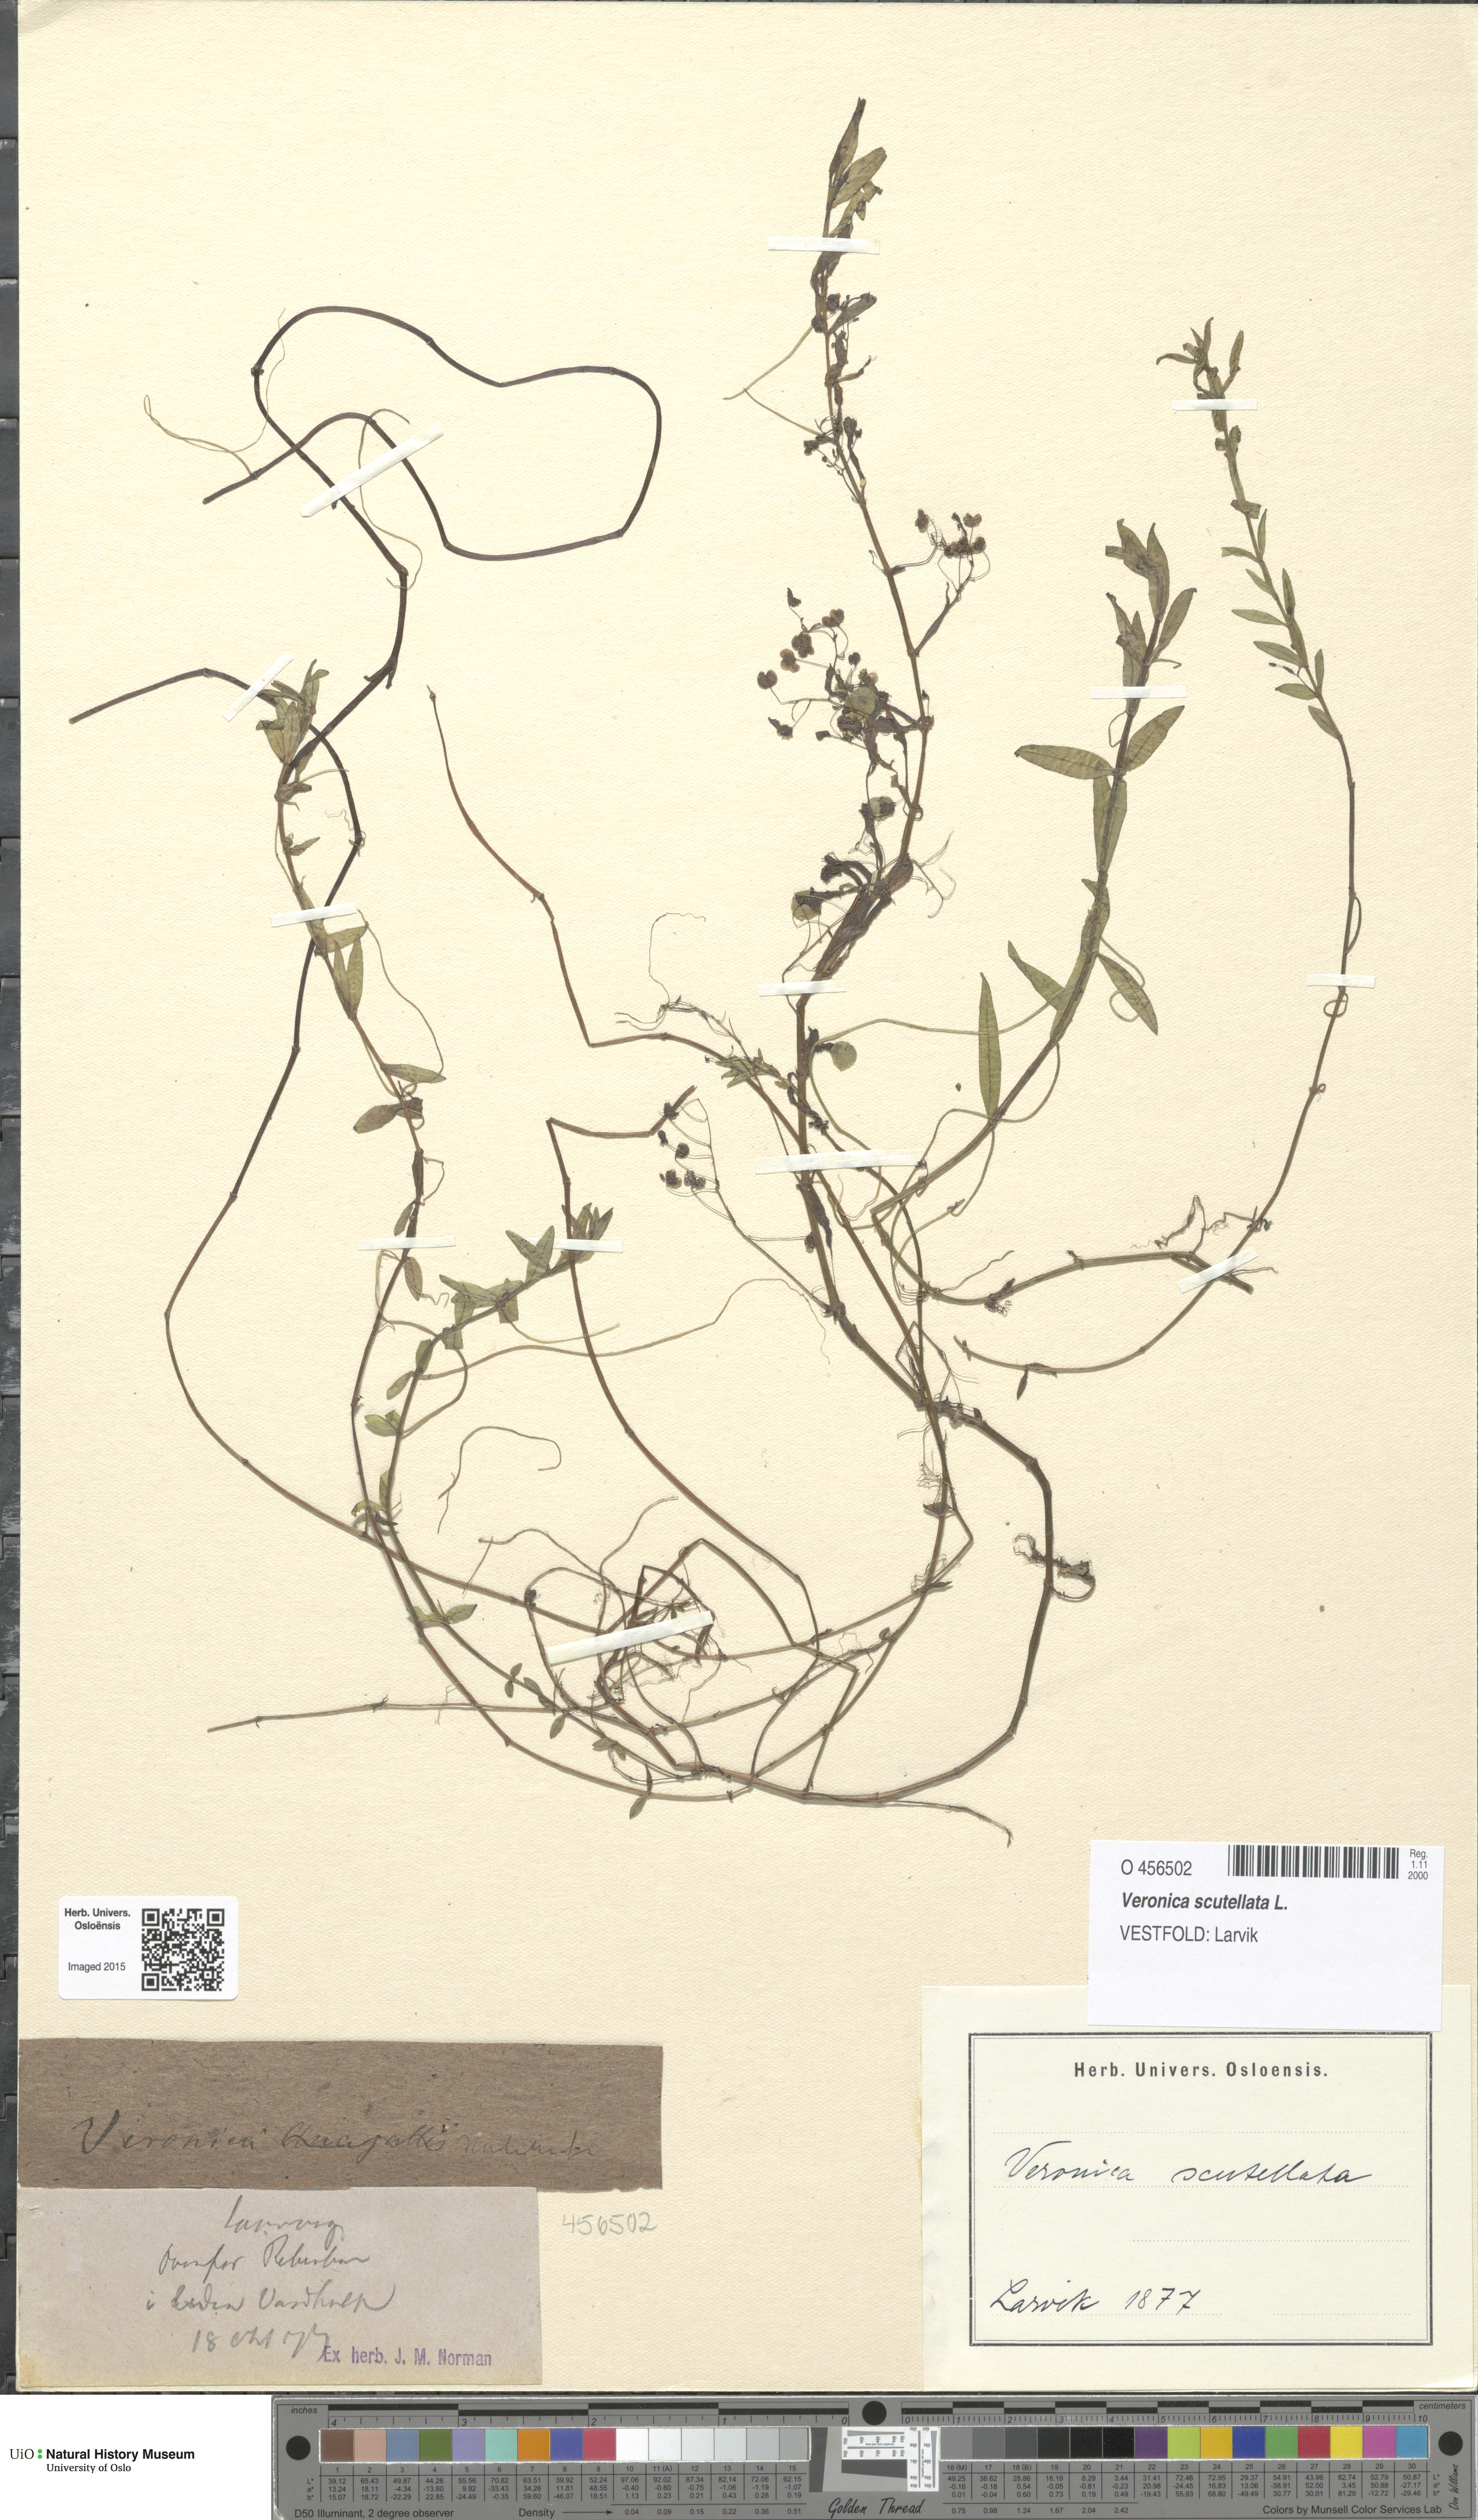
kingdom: Plantae
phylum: Tracheophyta
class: Magnoliopsida
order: Lamiales
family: Plantaginaceae
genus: Veronica
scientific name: Veronica scutellata
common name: Marsh speedwell
